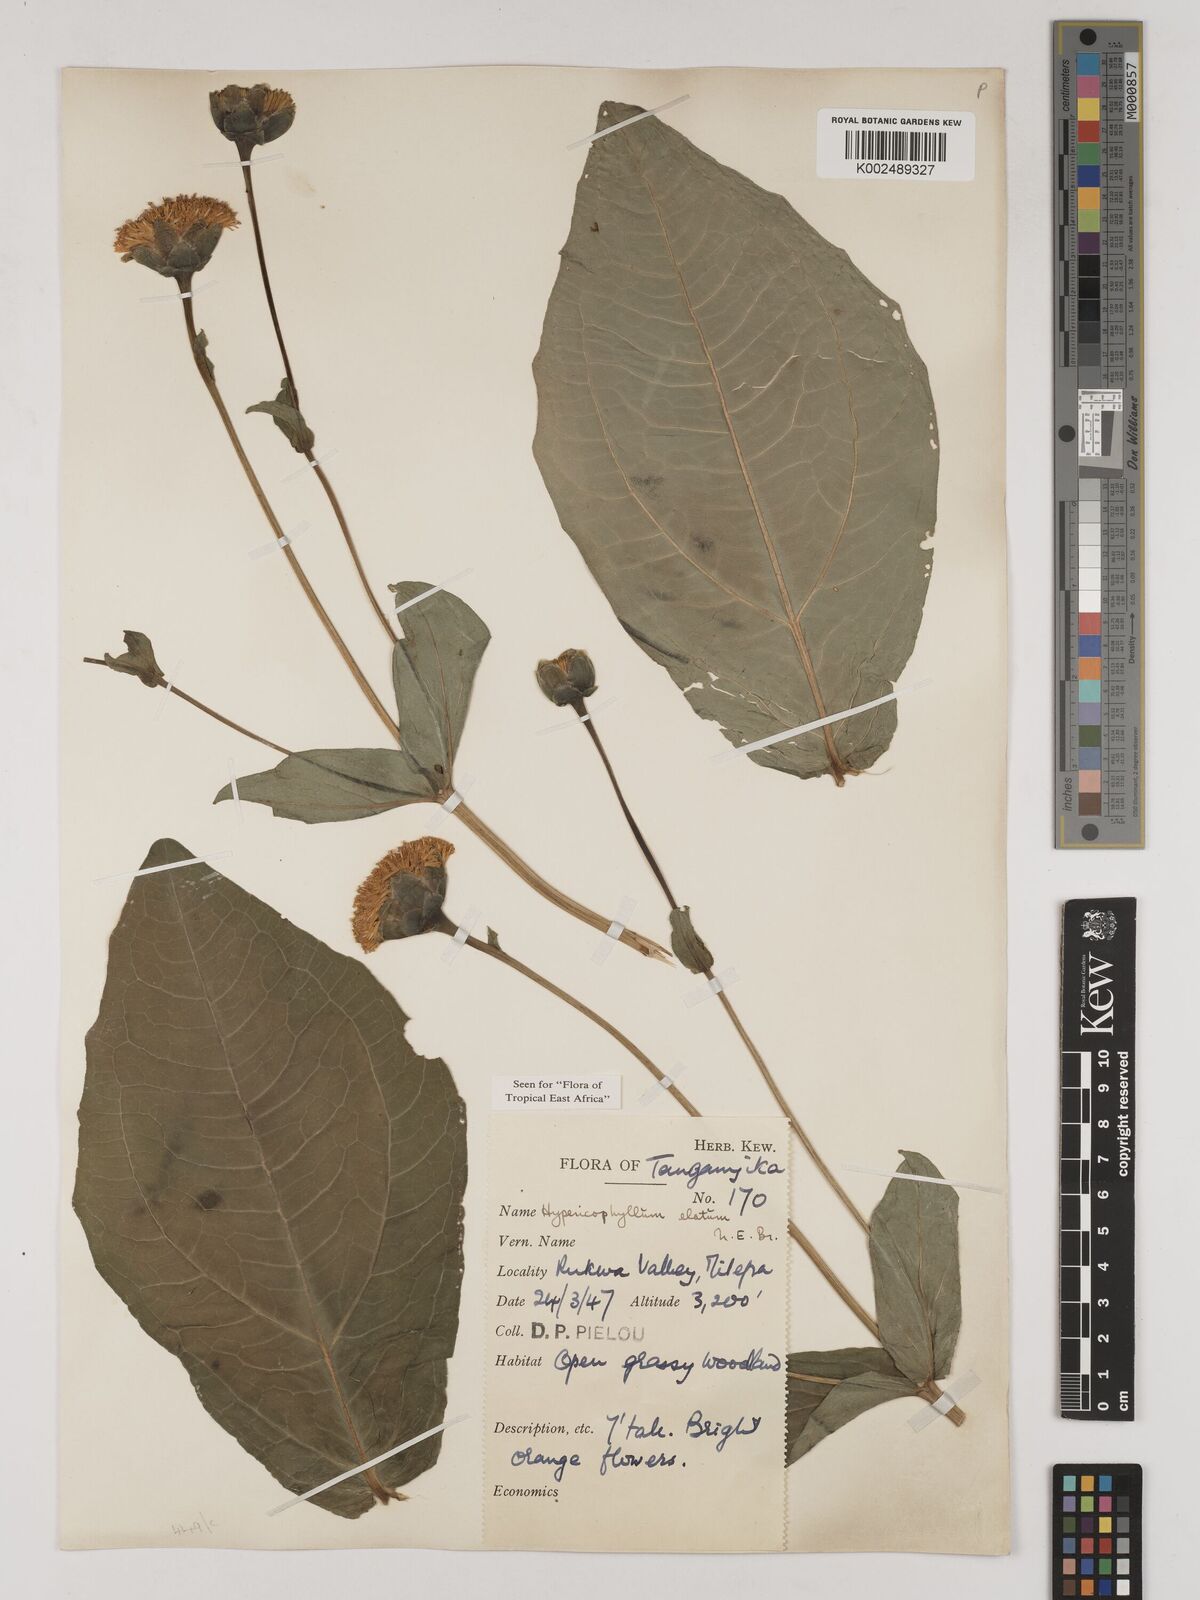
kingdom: Plantae
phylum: Tracheophyta
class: Magnoliopsida
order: Asterales
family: Asteraceae
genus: Hypericophyllum
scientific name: Hypericophyllum elatum
